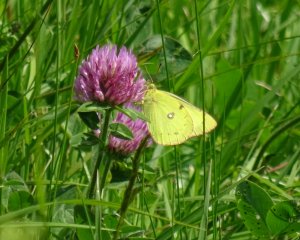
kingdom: Animalia
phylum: Arthropoda
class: Insecta
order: Lepidoptera
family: Pieridae
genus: Colias
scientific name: Colias philodice
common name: Clouded Sulphur
